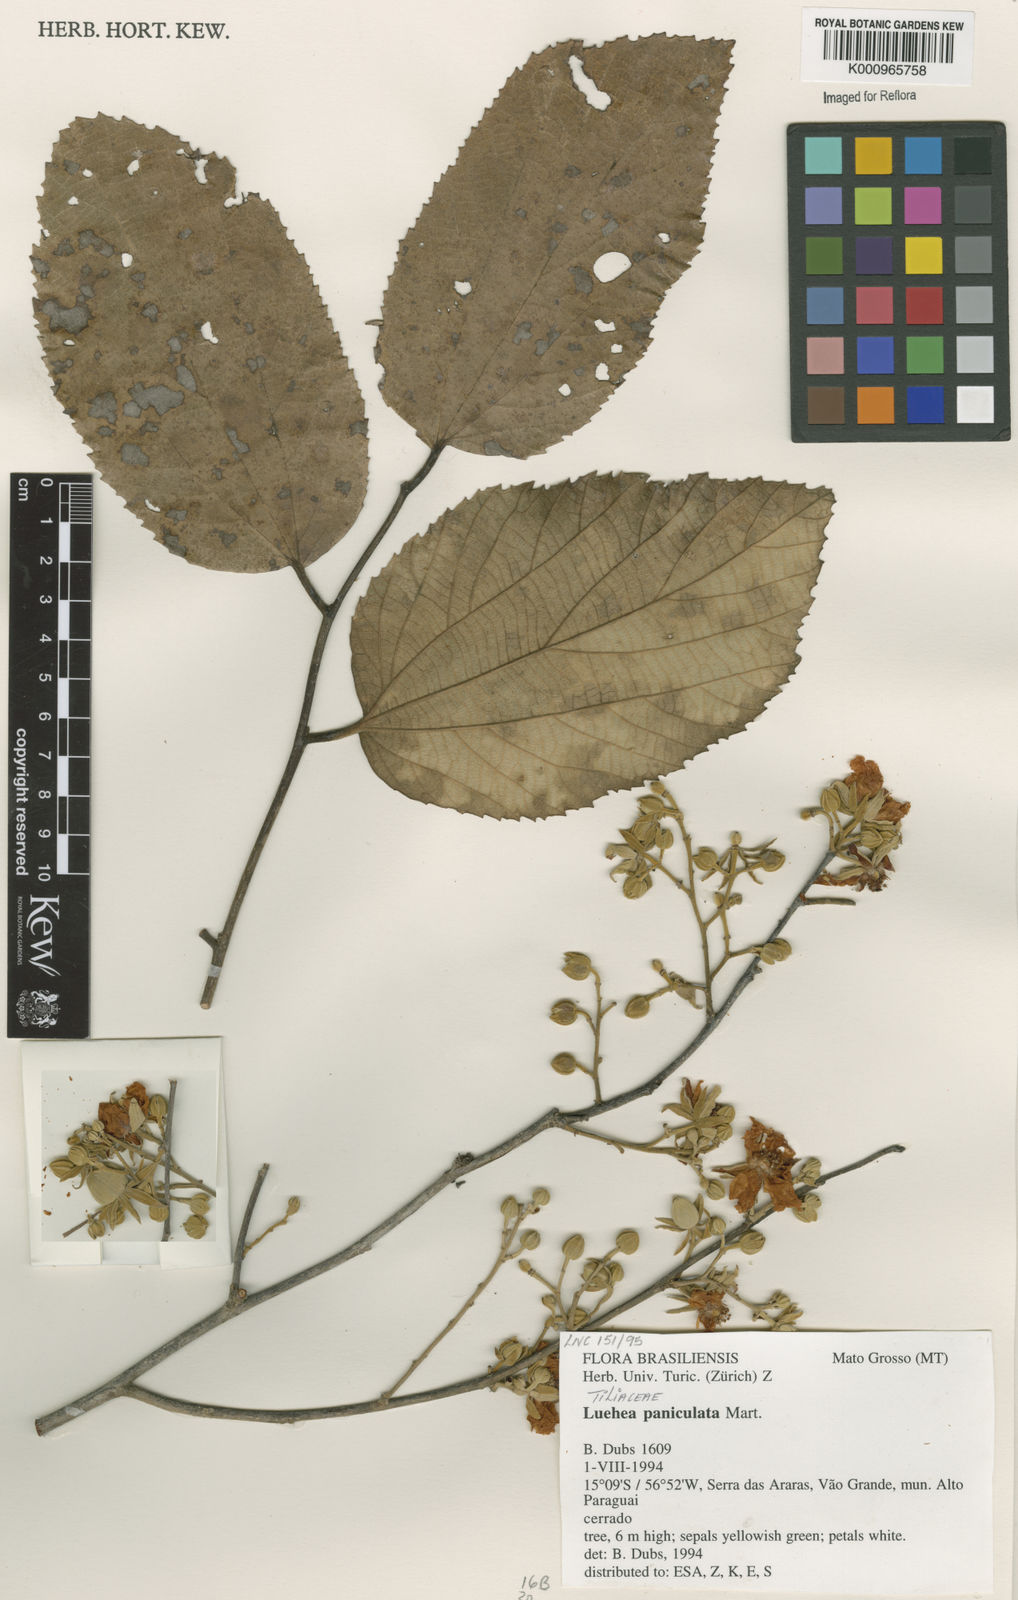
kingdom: Plantae
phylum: Tracheophyta
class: Magnoliopsida
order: Malvales
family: Malvaceae
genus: Luehea
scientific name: Luehea paniculata
